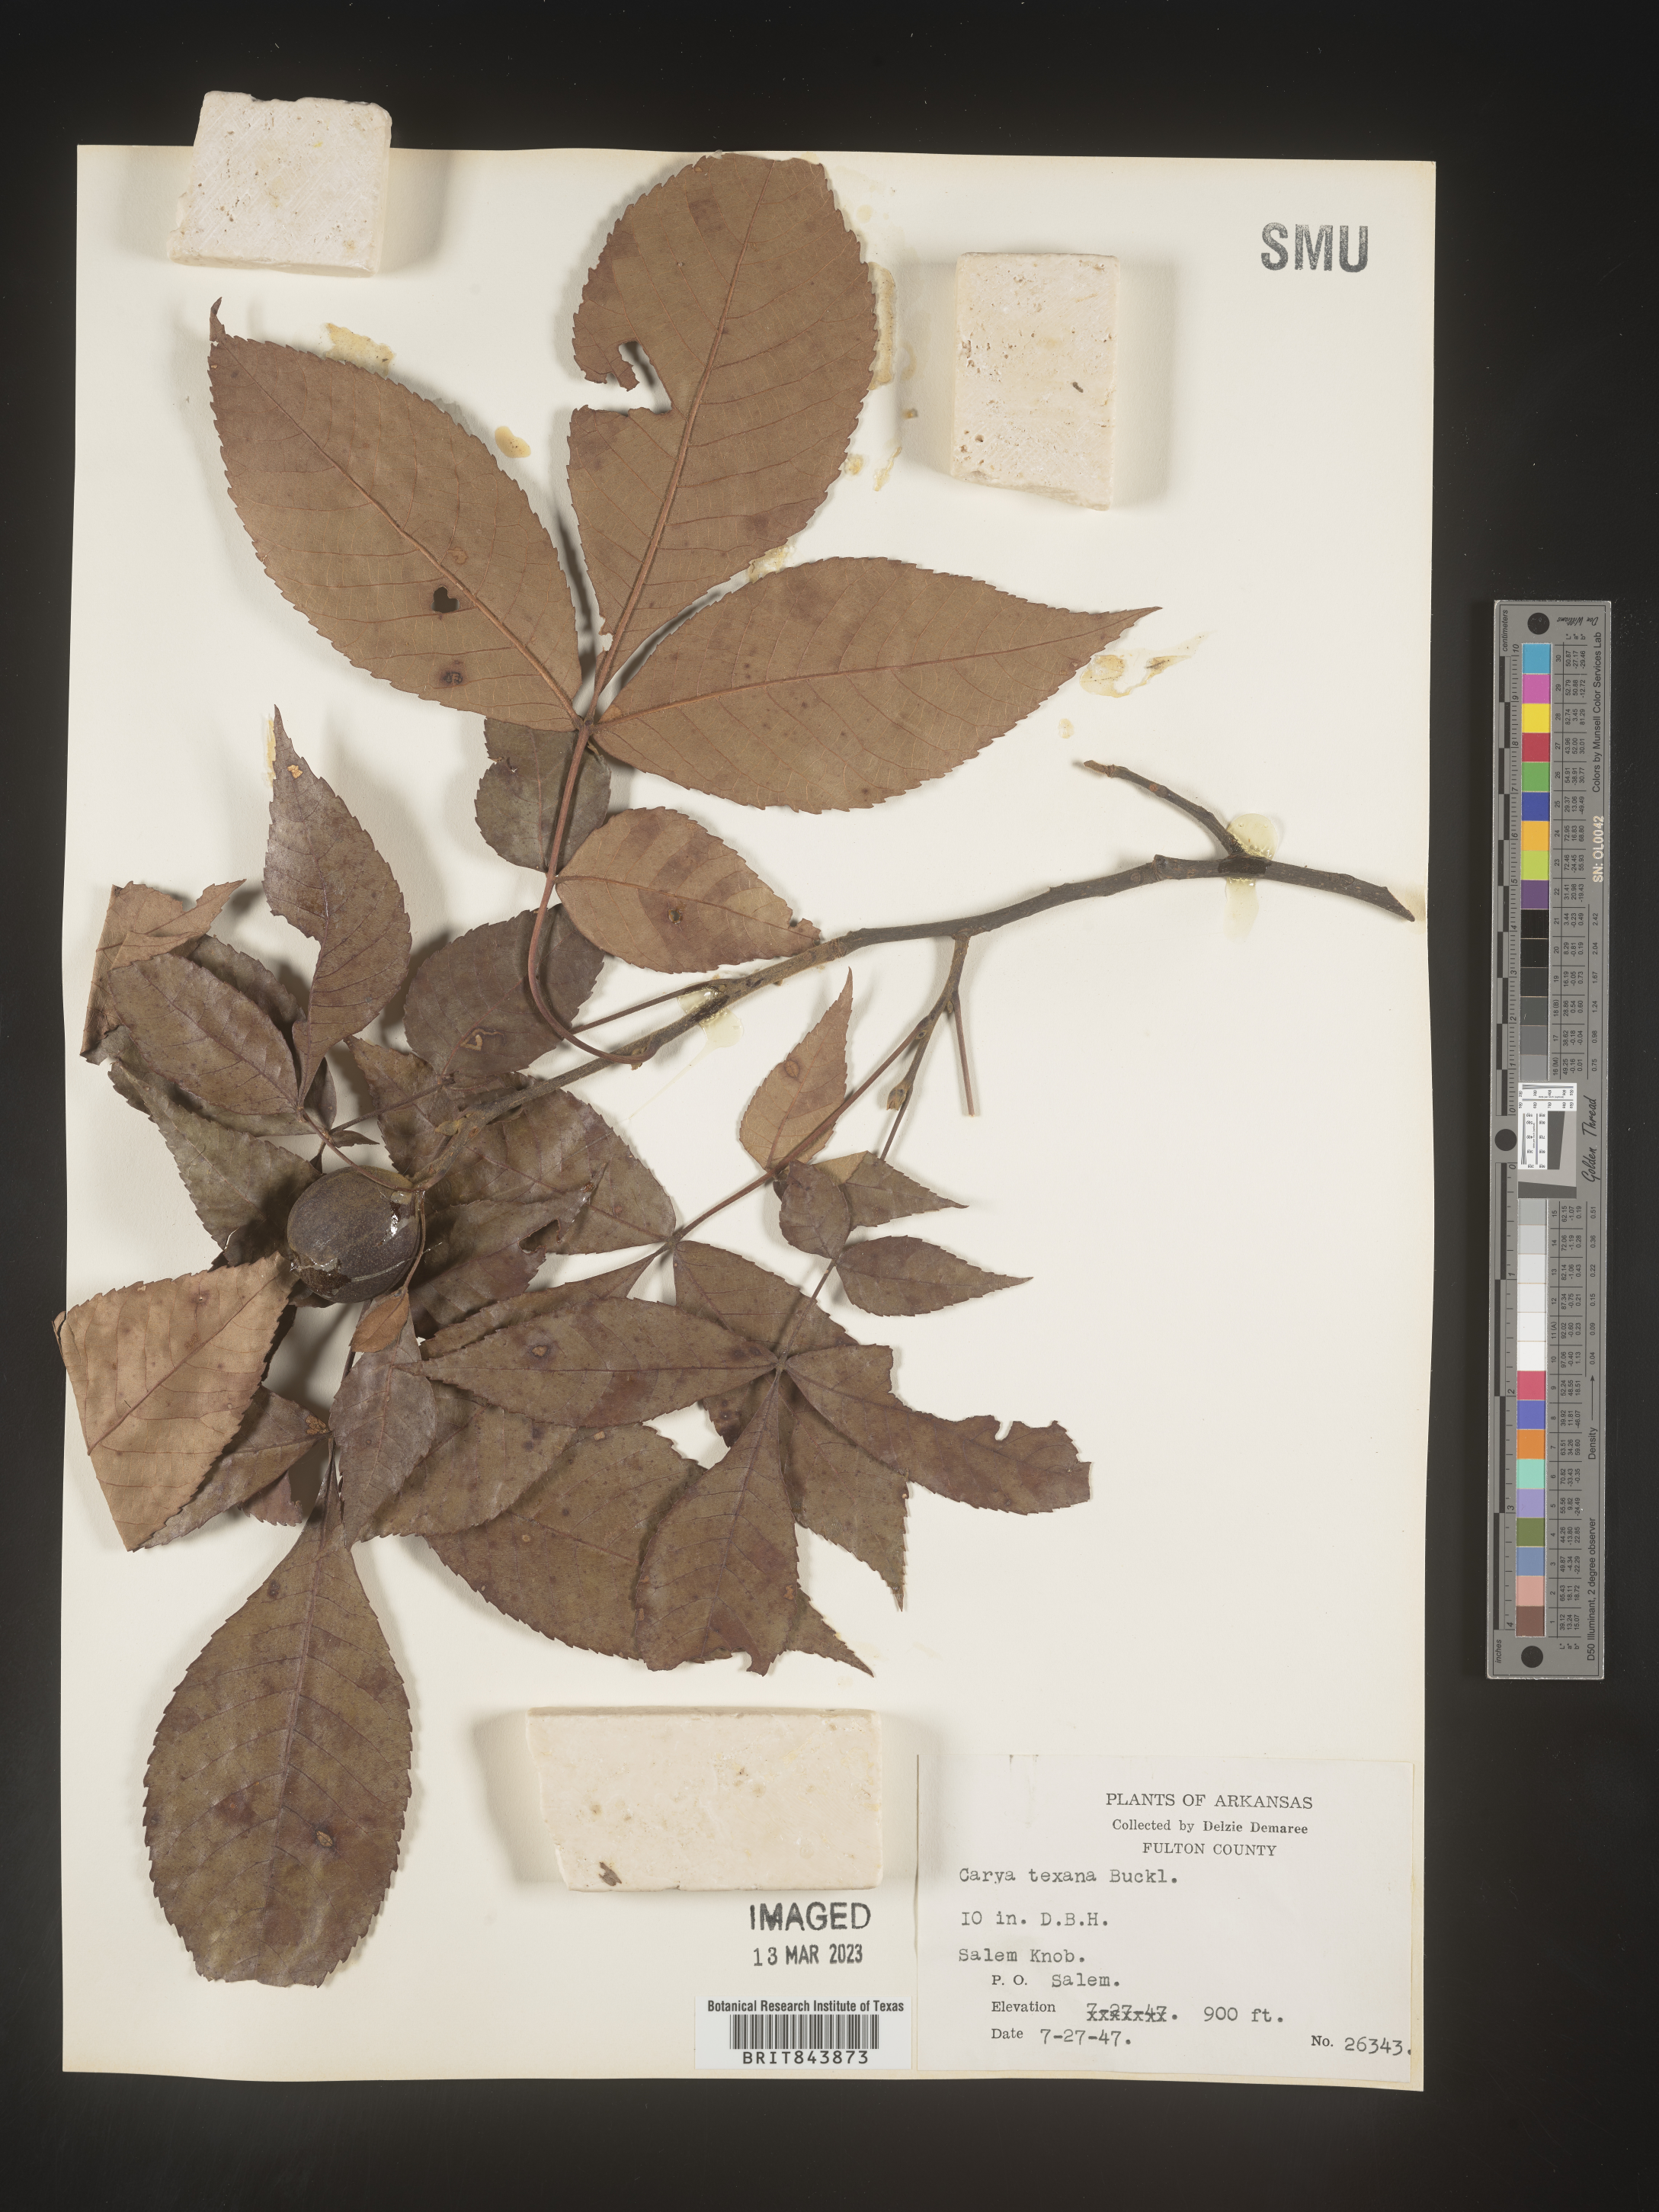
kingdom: Plantae
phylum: Tracheophyta
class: Magnoliopsida
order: Fagales
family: Juglandaceae
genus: Carya
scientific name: Carya texana
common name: Black hickory
